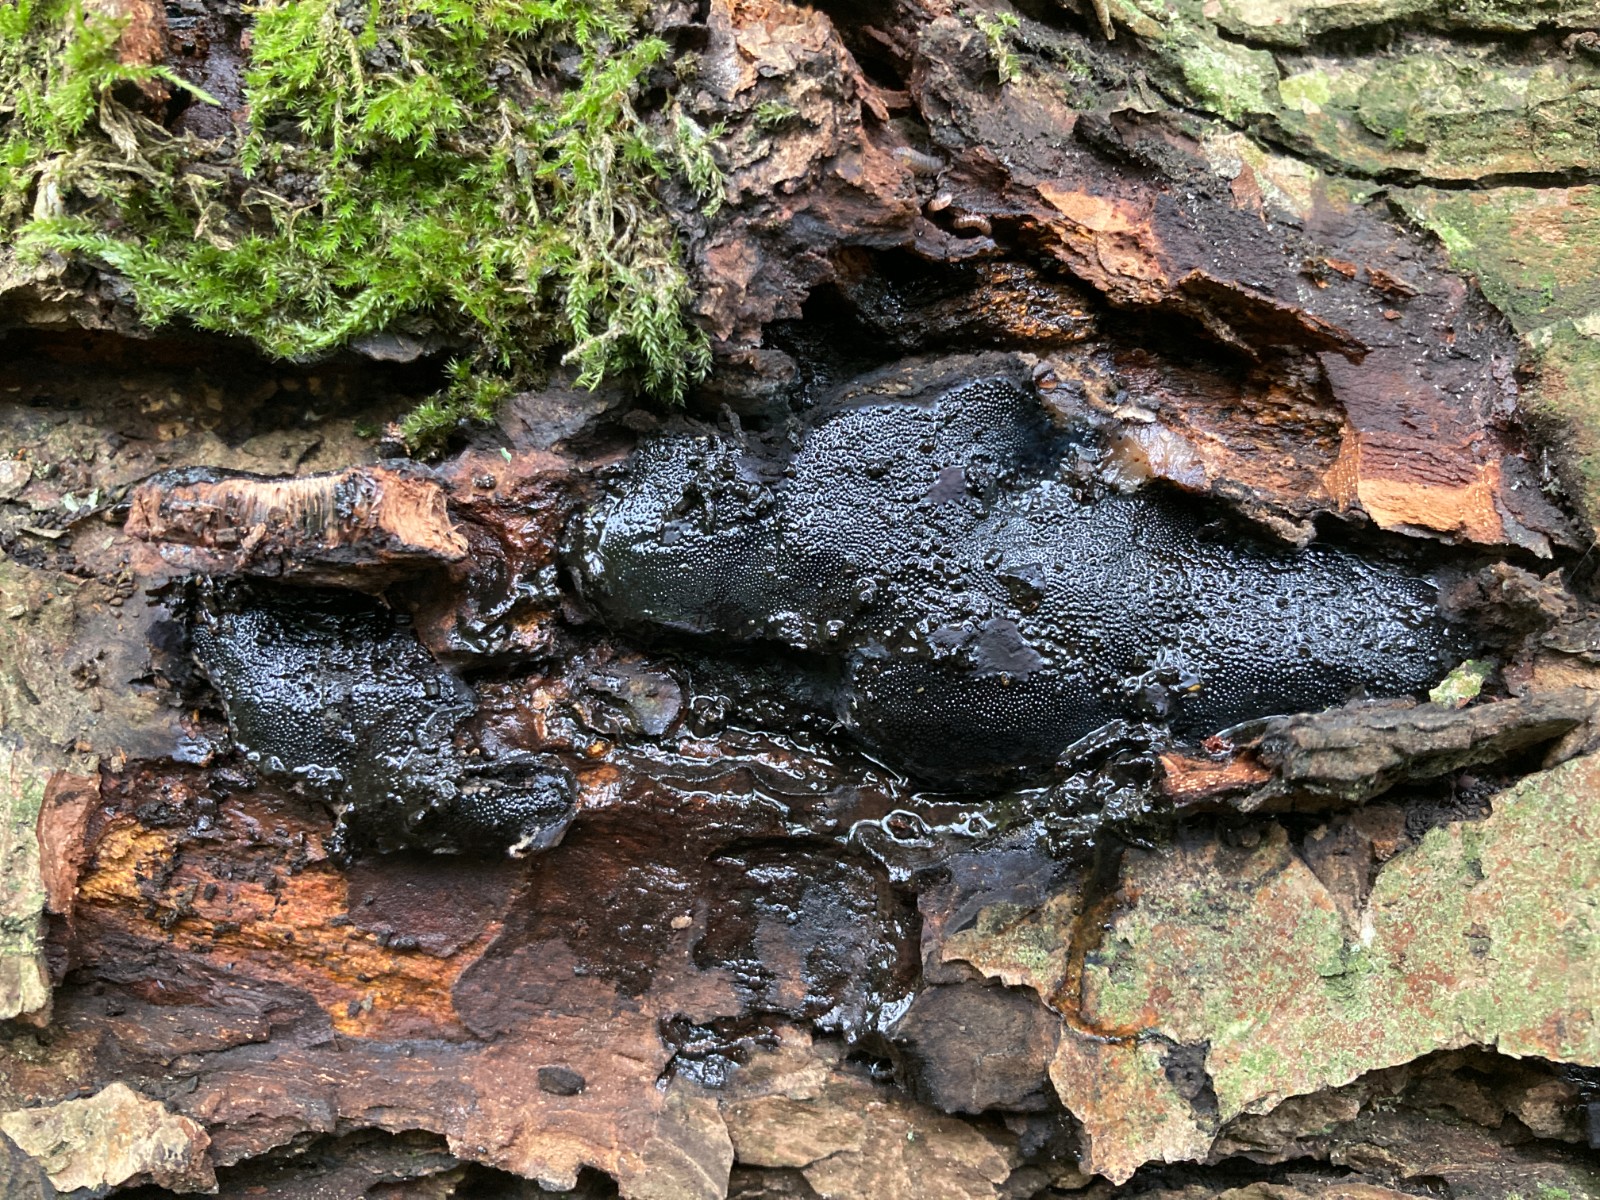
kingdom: Fungi
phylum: Ascomycota
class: Sordariomycetes
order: Boliniales
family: Boliniaceae
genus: Camarops
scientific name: Camarops polysperma
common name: elle-kulsnegl
